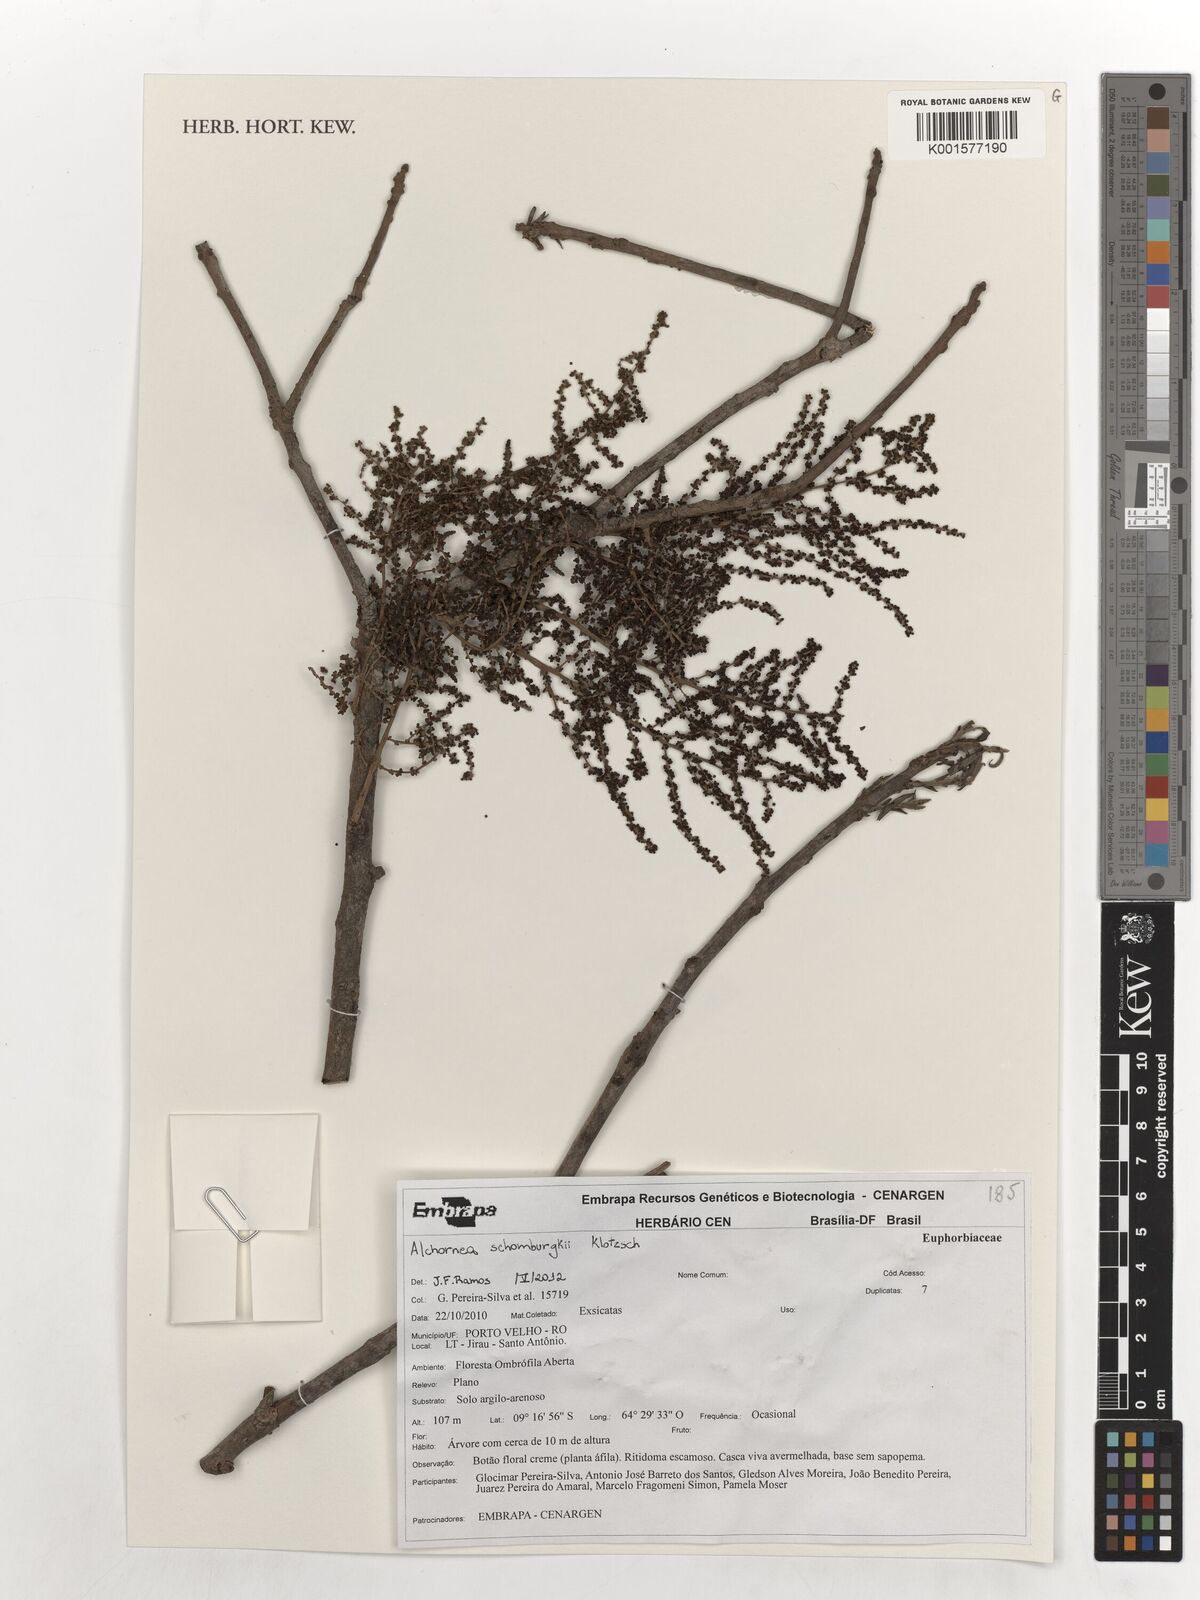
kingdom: Plantae
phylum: Tracheophyta
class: Magnoliopsida
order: Malpighiales
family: Euphorbiaceae
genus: Alchornea
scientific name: Alchornea discolor
